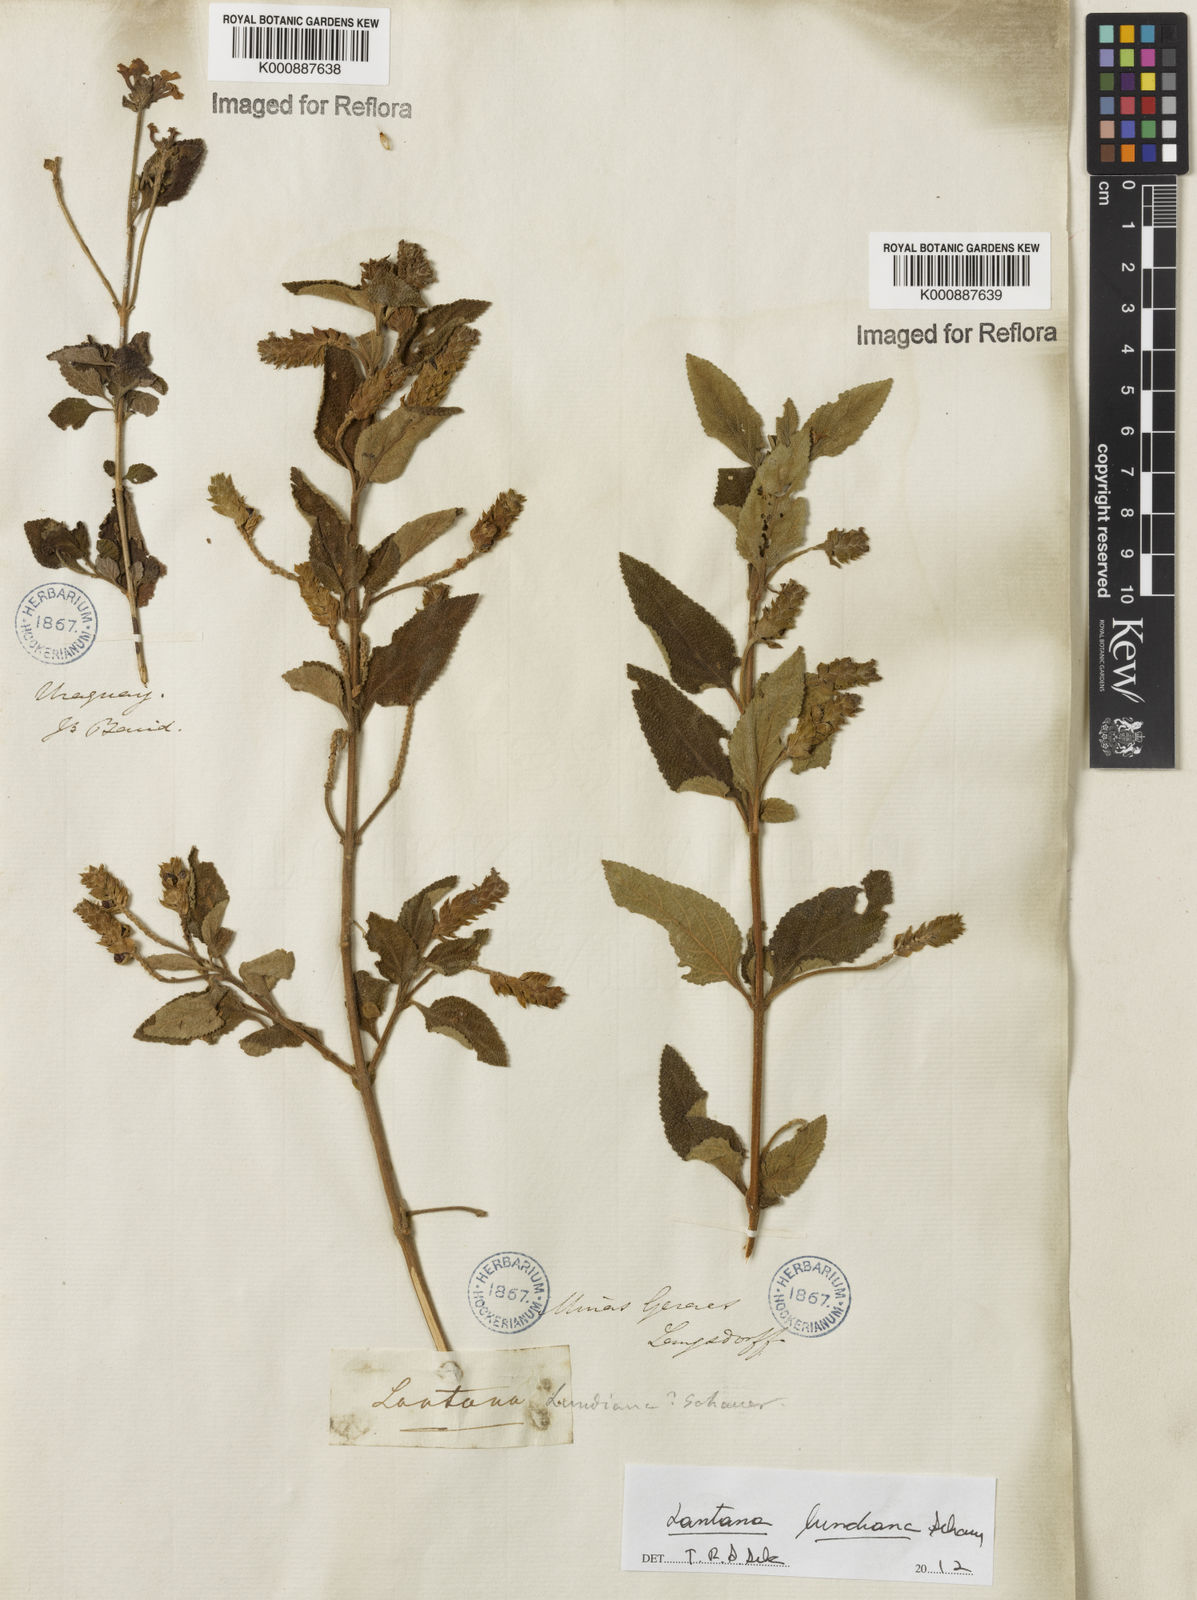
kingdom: Plantae
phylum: Tracheophyta
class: Magnoliopsida
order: Lamiales
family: Verbenaceae
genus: Lantana
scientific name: Lantana lundiana
